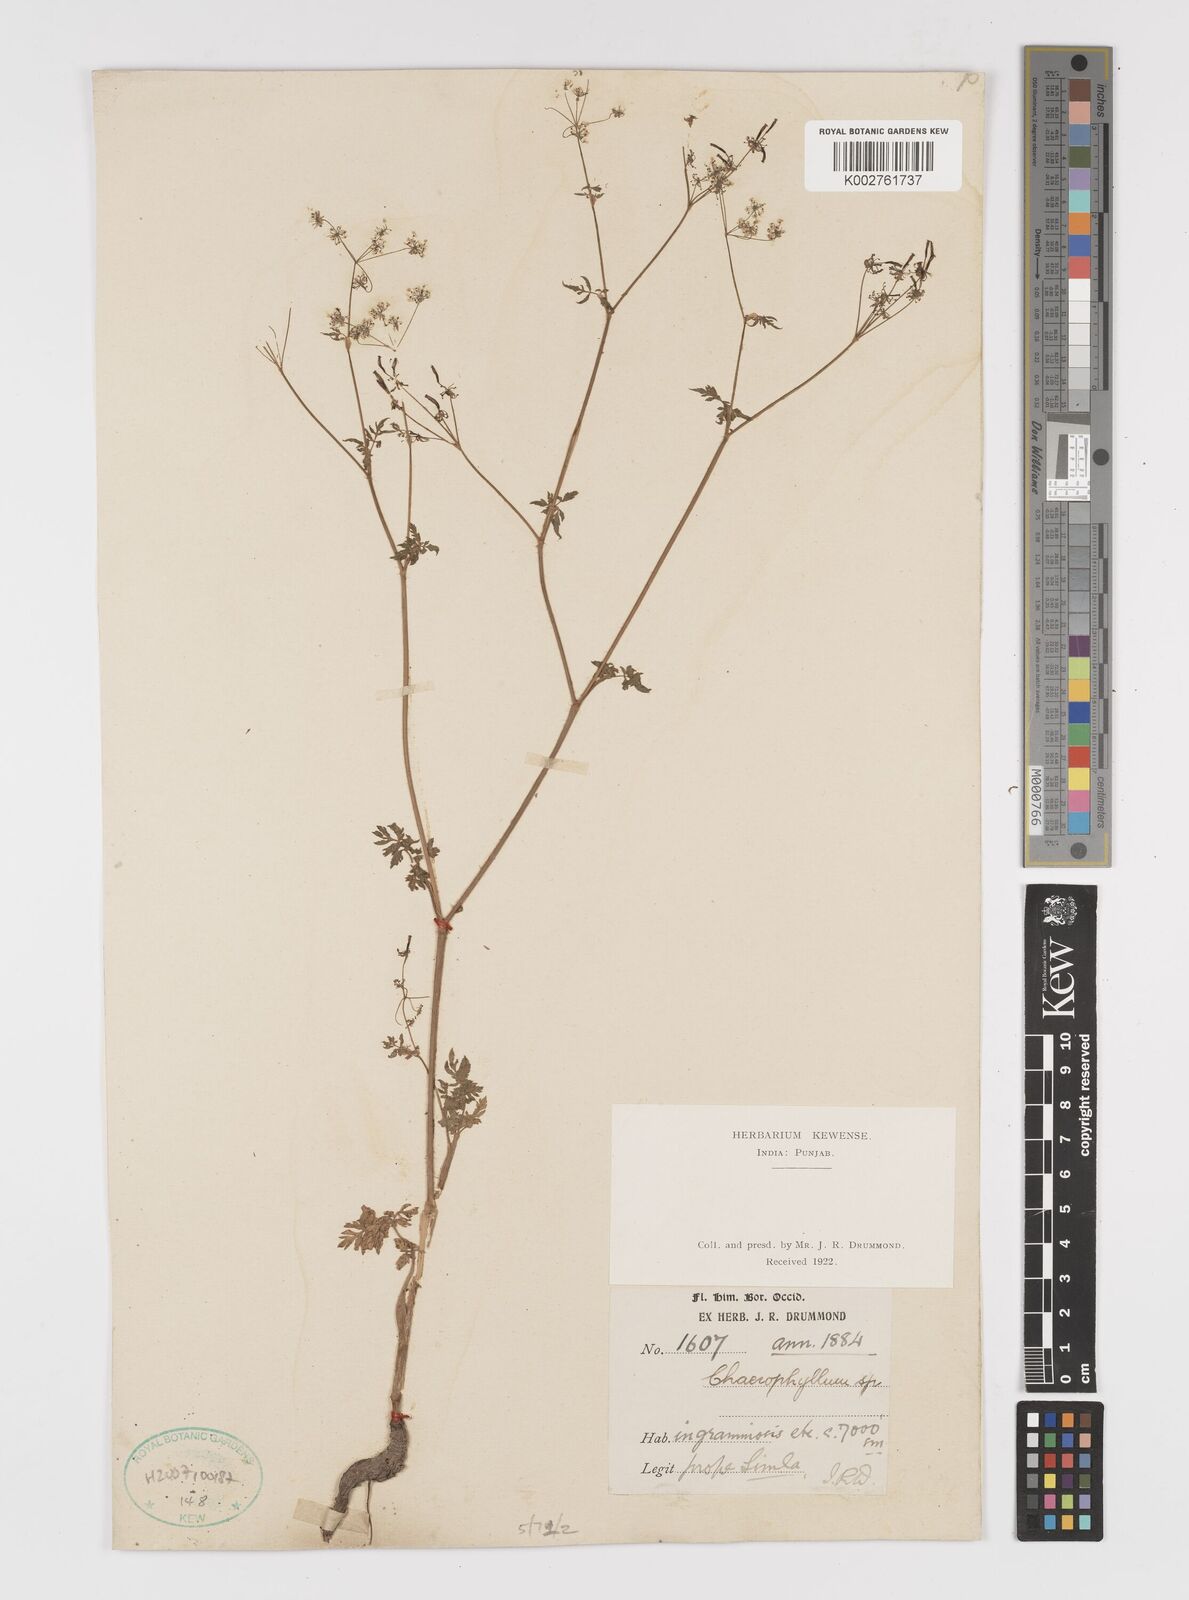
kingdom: Plantae
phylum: Tracheophyta
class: Magnoliopsida
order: Apiales
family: Apiaceae
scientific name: Apiaceae
